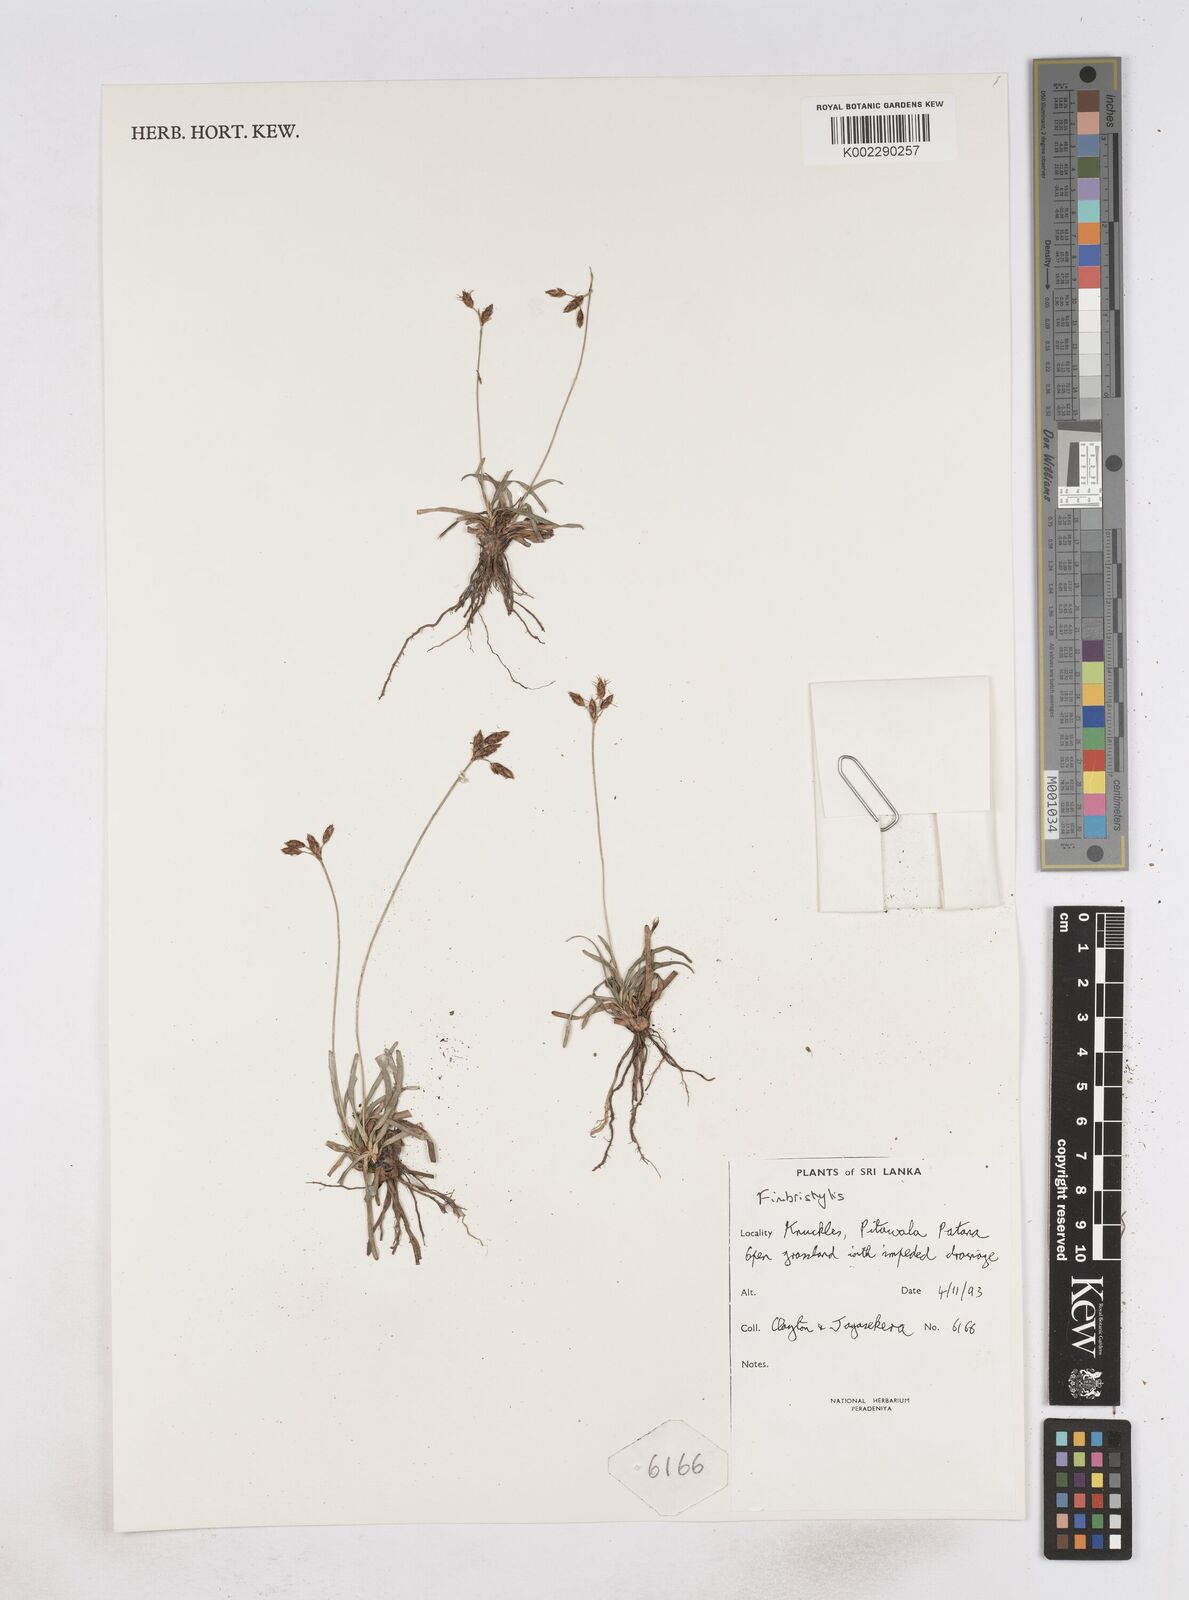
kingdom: Plantae
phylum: Tracheophyta
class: Liliopsida
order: Poales
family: Cyperaceae
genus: Fimbristylis
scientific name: Fimbristylis
